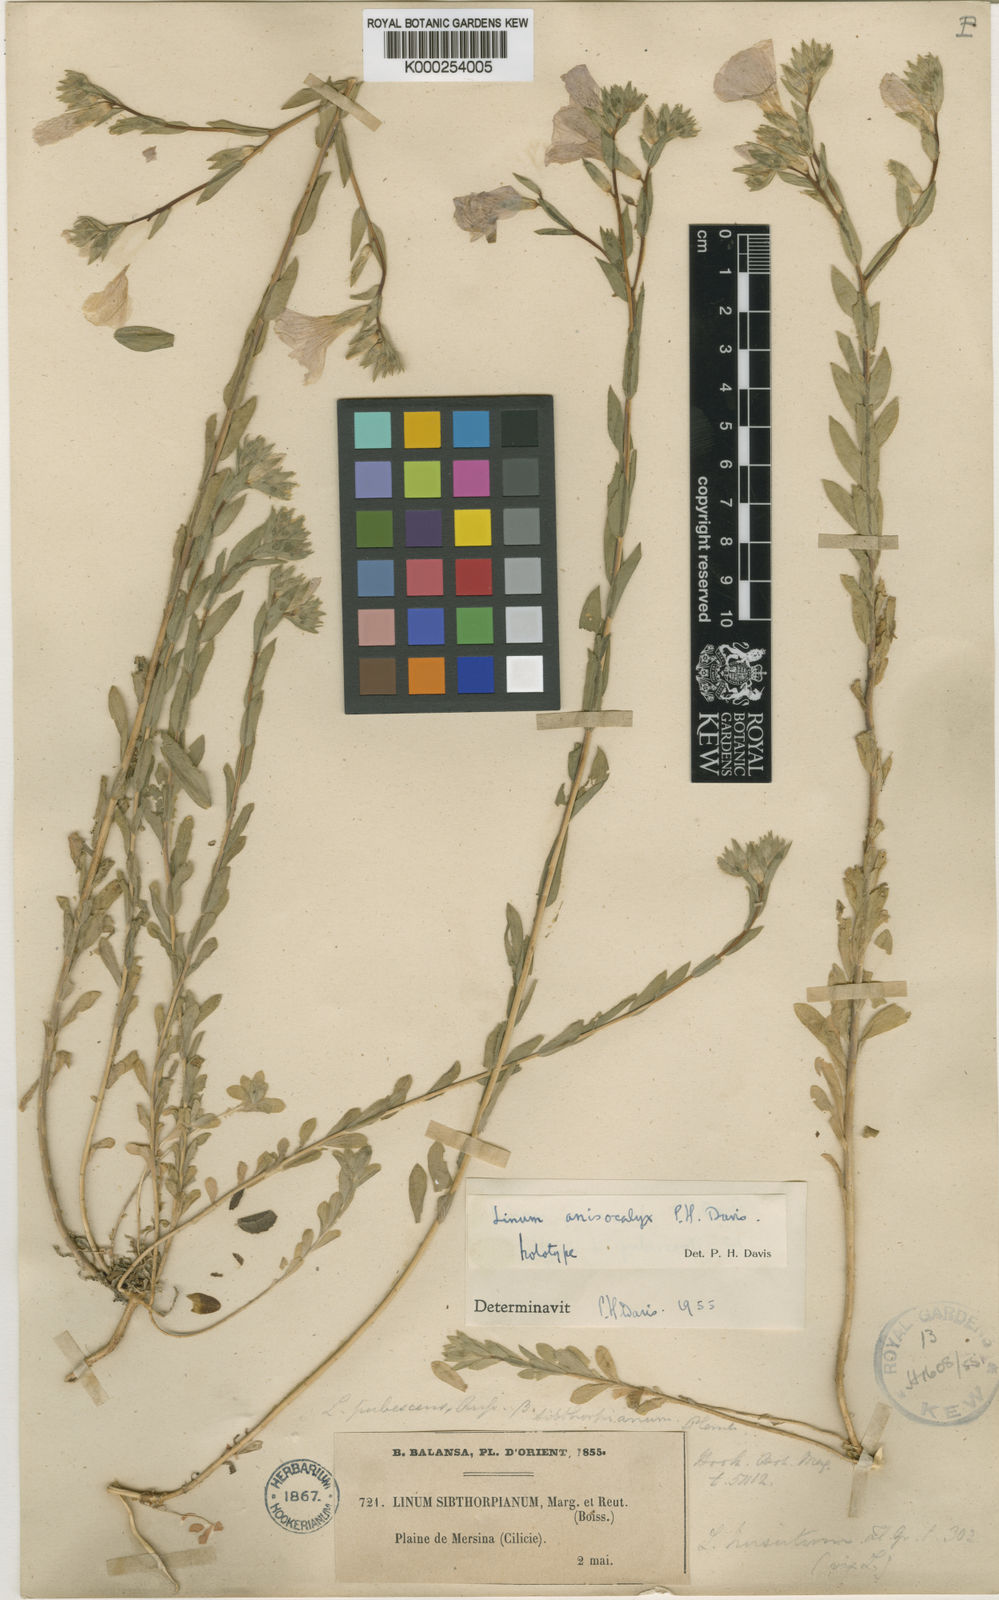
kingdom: Plantae
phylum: Tracheophyta
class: Magnoliopsida
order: Malpighiales
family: Linaceae
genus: Linum
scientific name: Linum pubescens
